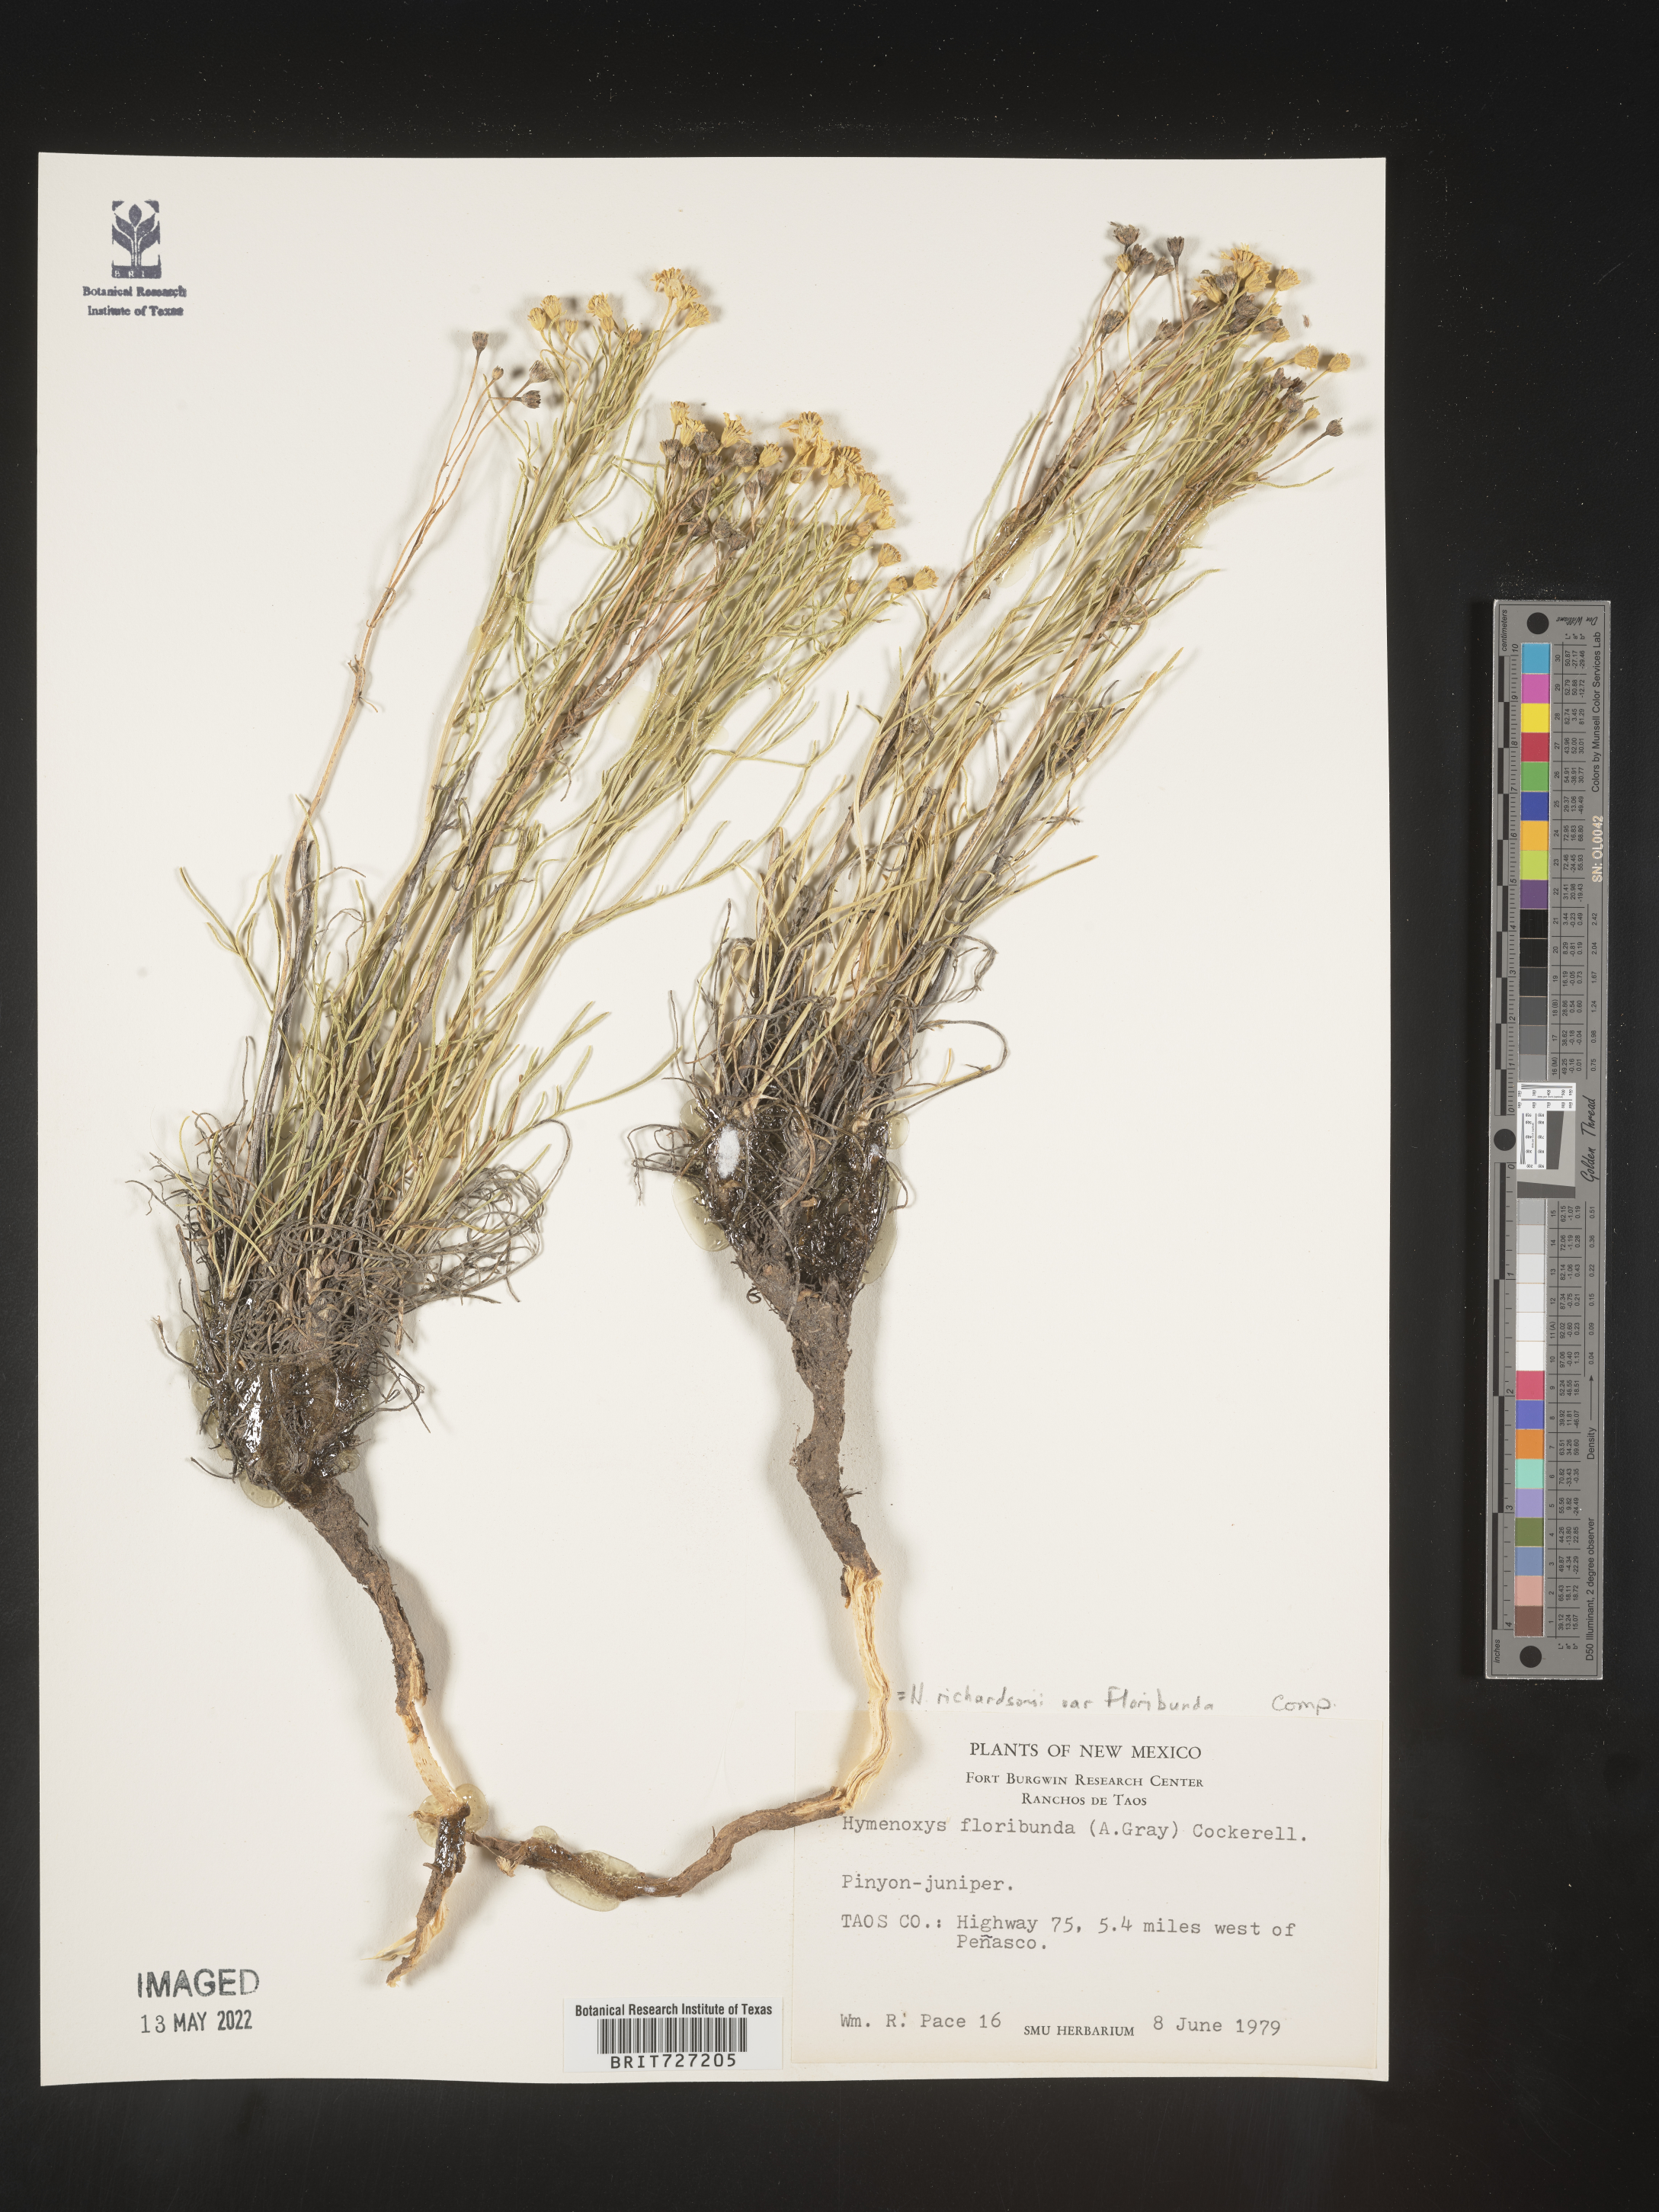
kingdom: Plantae
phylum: Tracheophyta
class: Magnoliopsida
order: Asterales
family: Asteraceae
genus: Hymenoxys
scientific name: Hymenoxys richardsonii
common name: Pingue rubberweed
